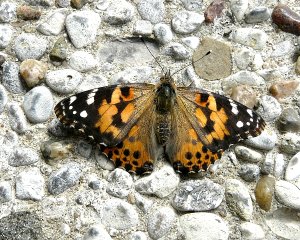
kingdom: Animalia
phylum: Arthropoda
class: Insecta
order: Lepidoptera
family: Nymphalidae
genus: Vanessa
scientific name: Vanessa cardui
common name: Painted Lady
